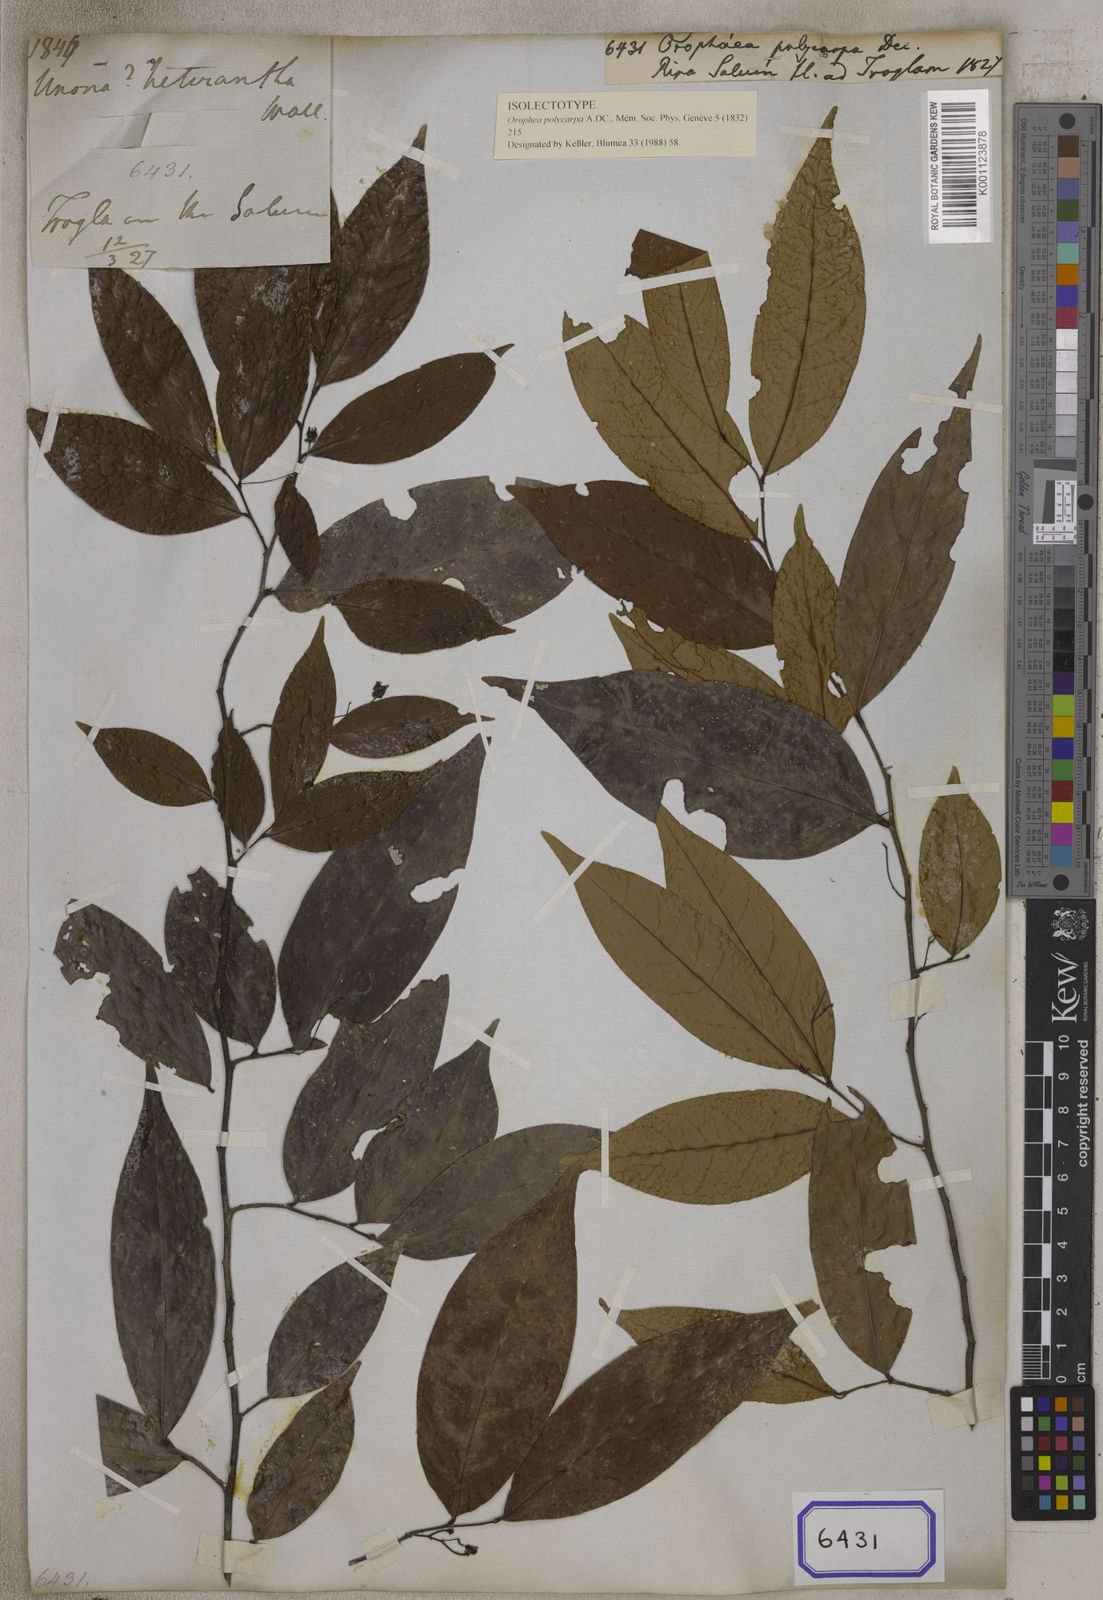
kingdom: Plantae
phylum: Tracheophyta
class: Magnoliopsida
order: Magnoliales
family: Annonaceae
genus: Orophea
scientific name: Orophea polycarpa
